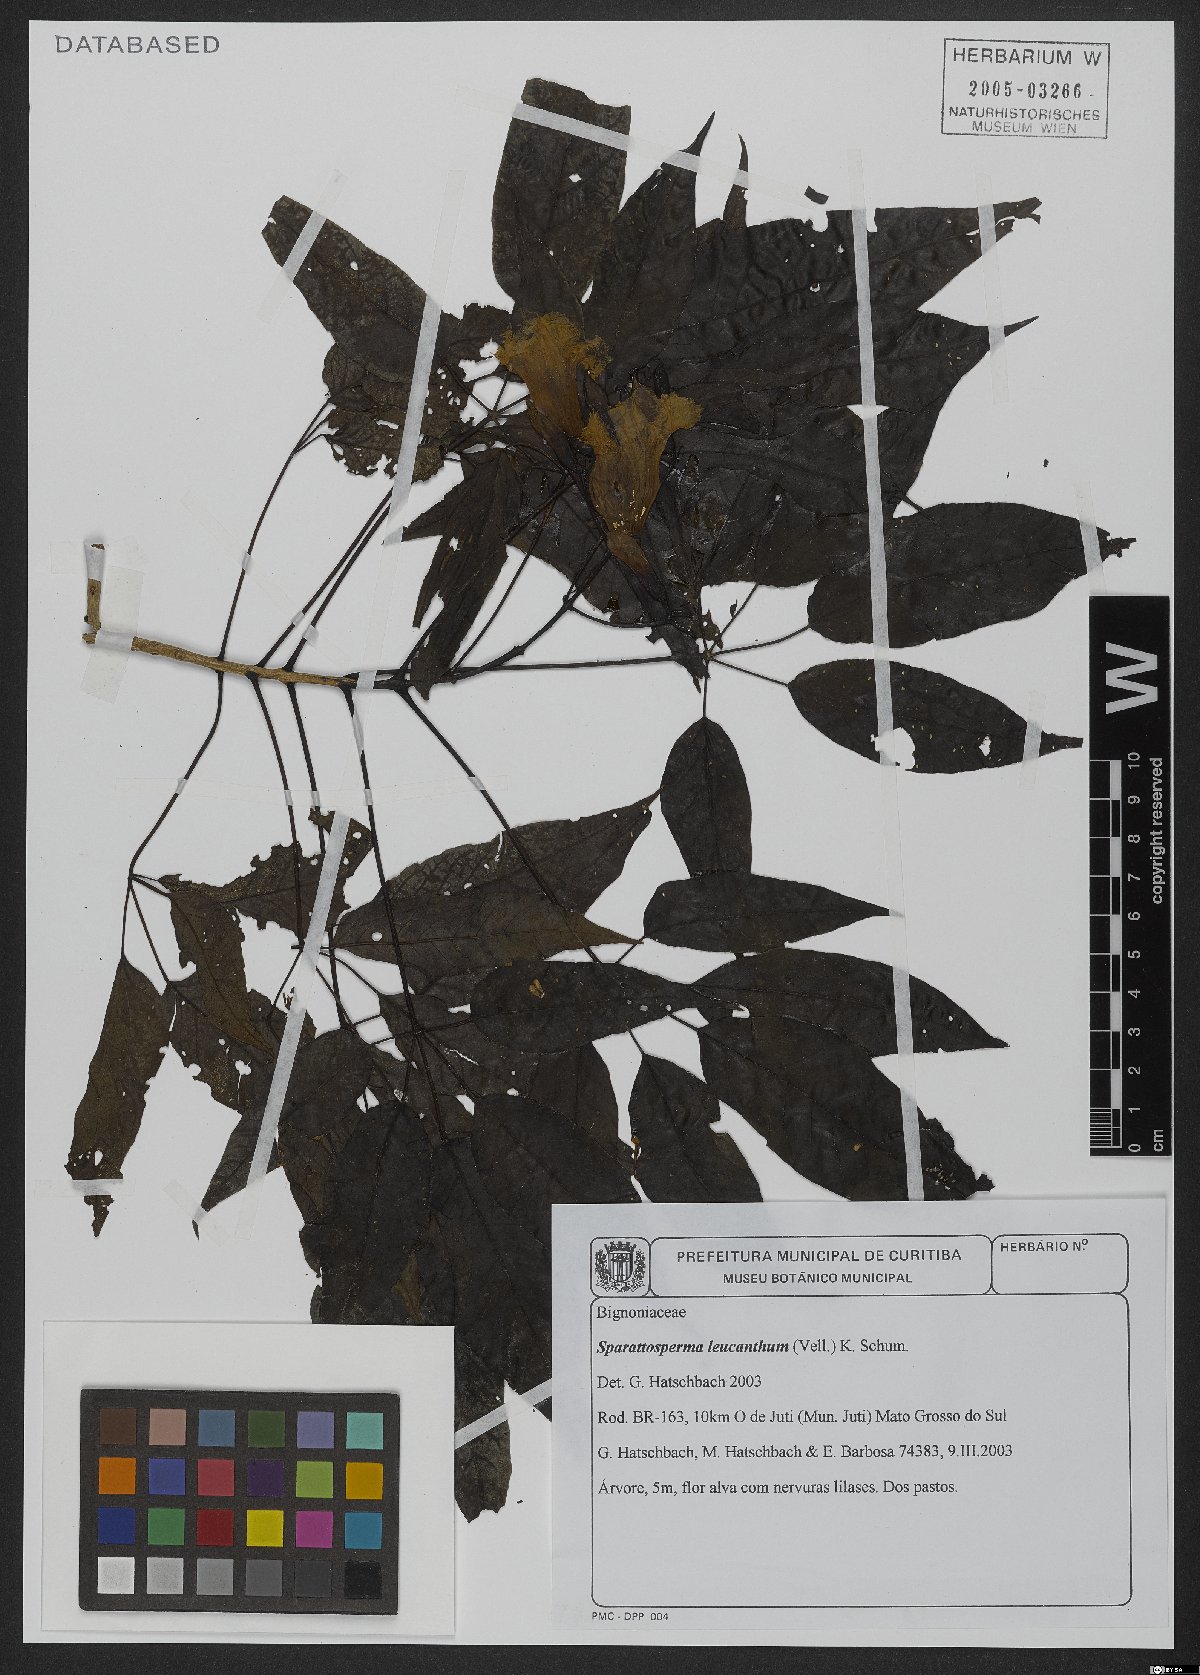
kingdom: Plantae
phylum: Tracheophyta
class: Magnoliopsida
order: Lamiales
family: Bignoniaceae
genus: Sparattosperma
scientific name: Sparattosperma leucanthum
